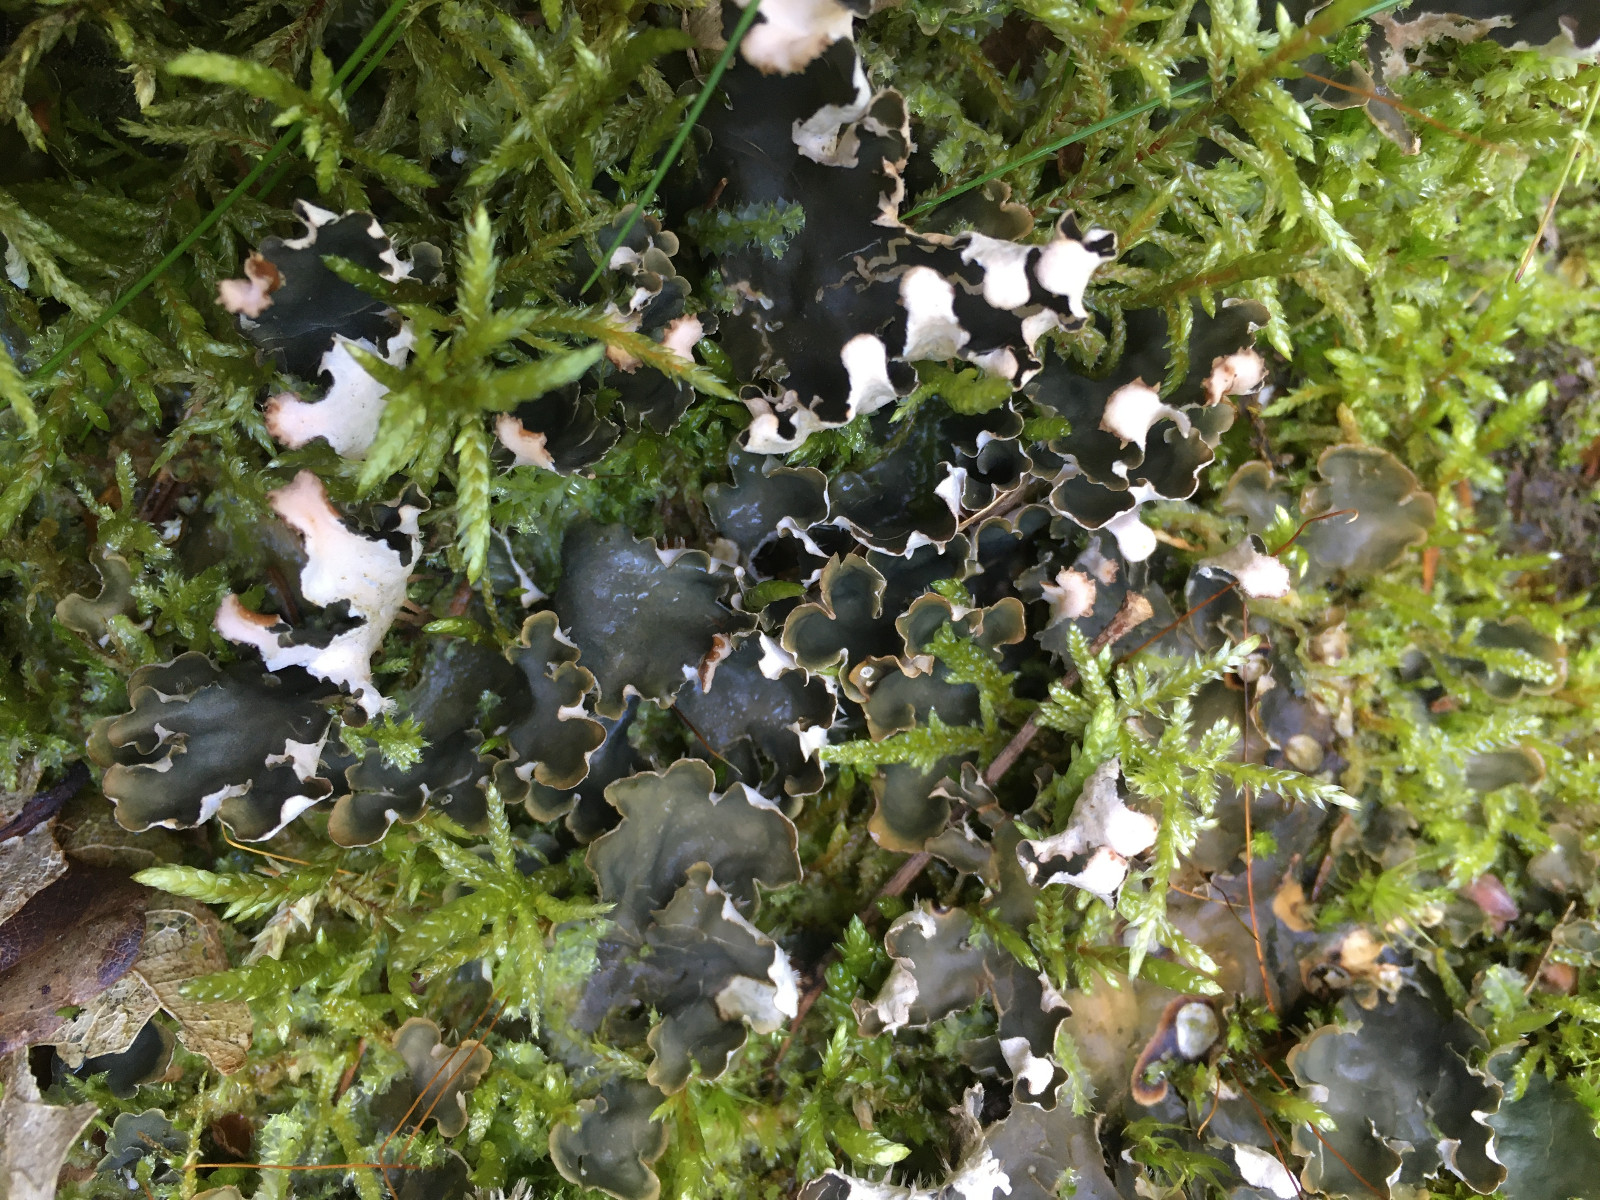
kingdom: Fungi
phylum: Ascomycota
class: Lecanoromycetes
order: Peltigerales
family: Peltigeraceae
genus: Peltigera
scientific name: Peltigera hymenina
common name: hinde-skjoldlav
